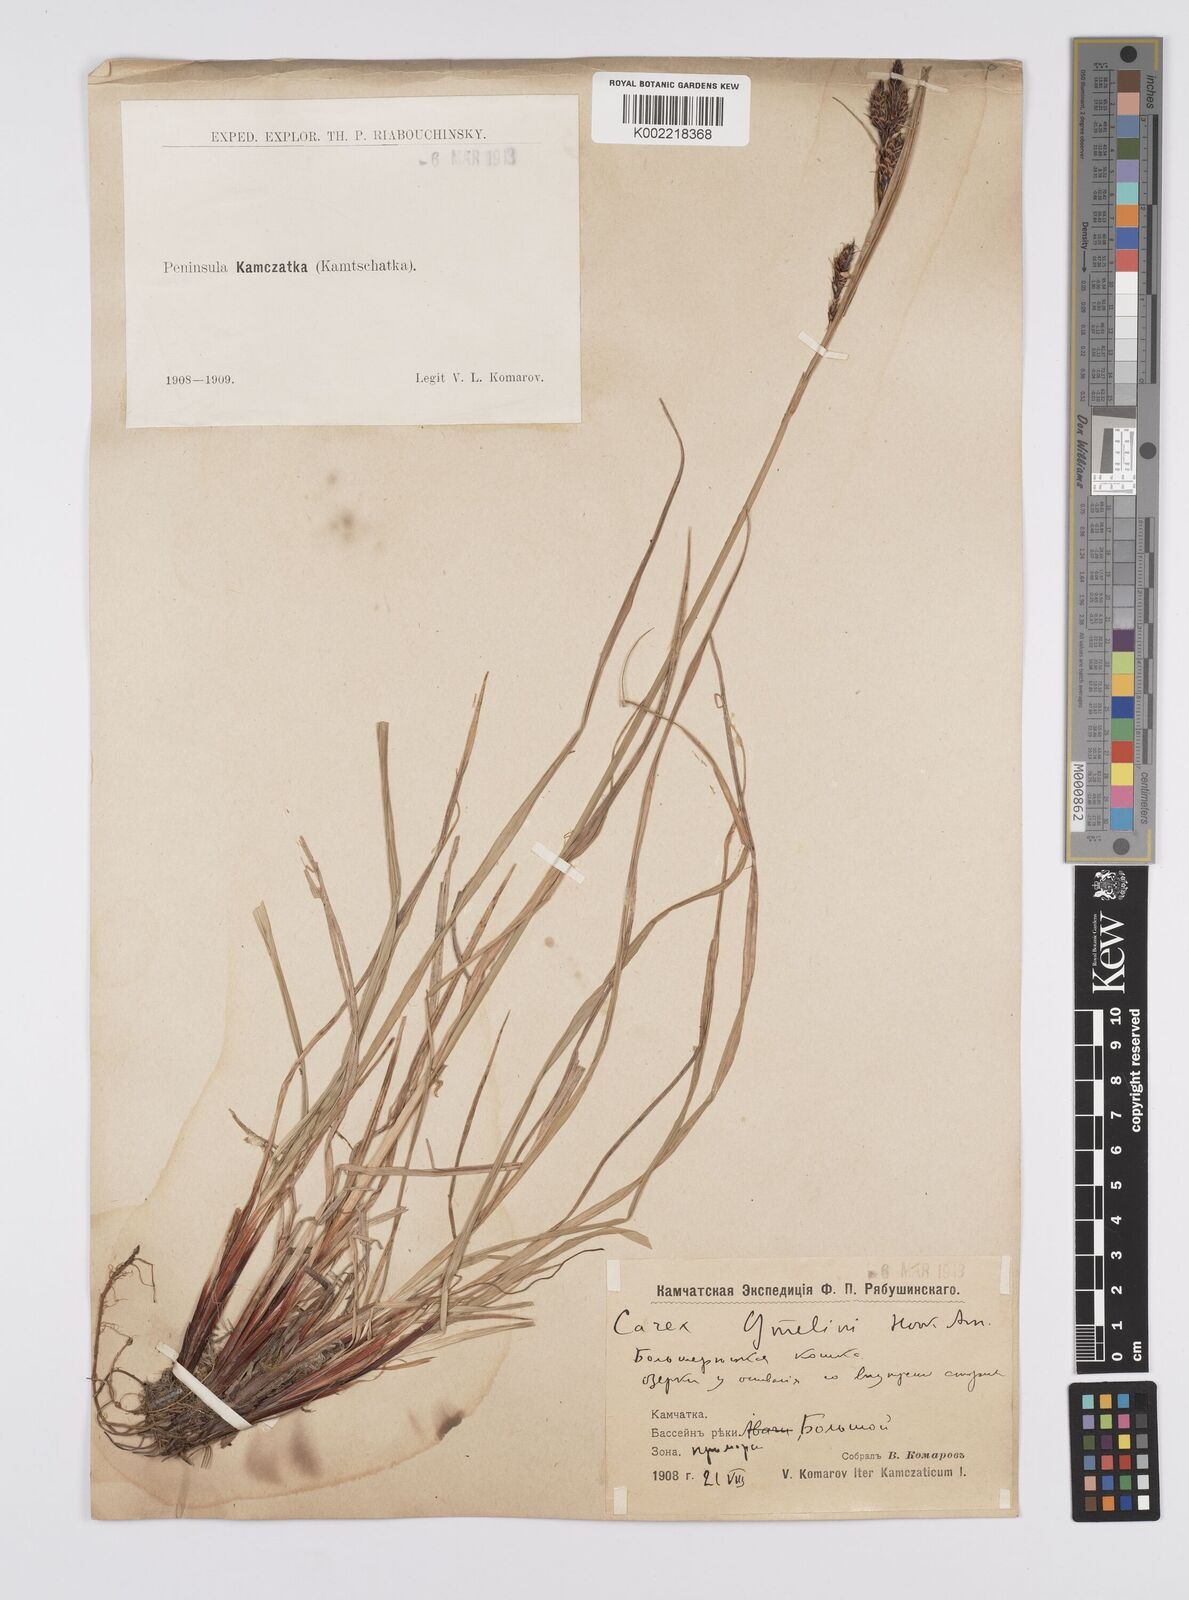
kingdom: Plantae
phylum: Tracheophyta
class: Liliopsida
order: Poales
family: Cyperaceae
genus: Carex
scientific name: Carex gmelinii
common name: Gmelin's sedge
